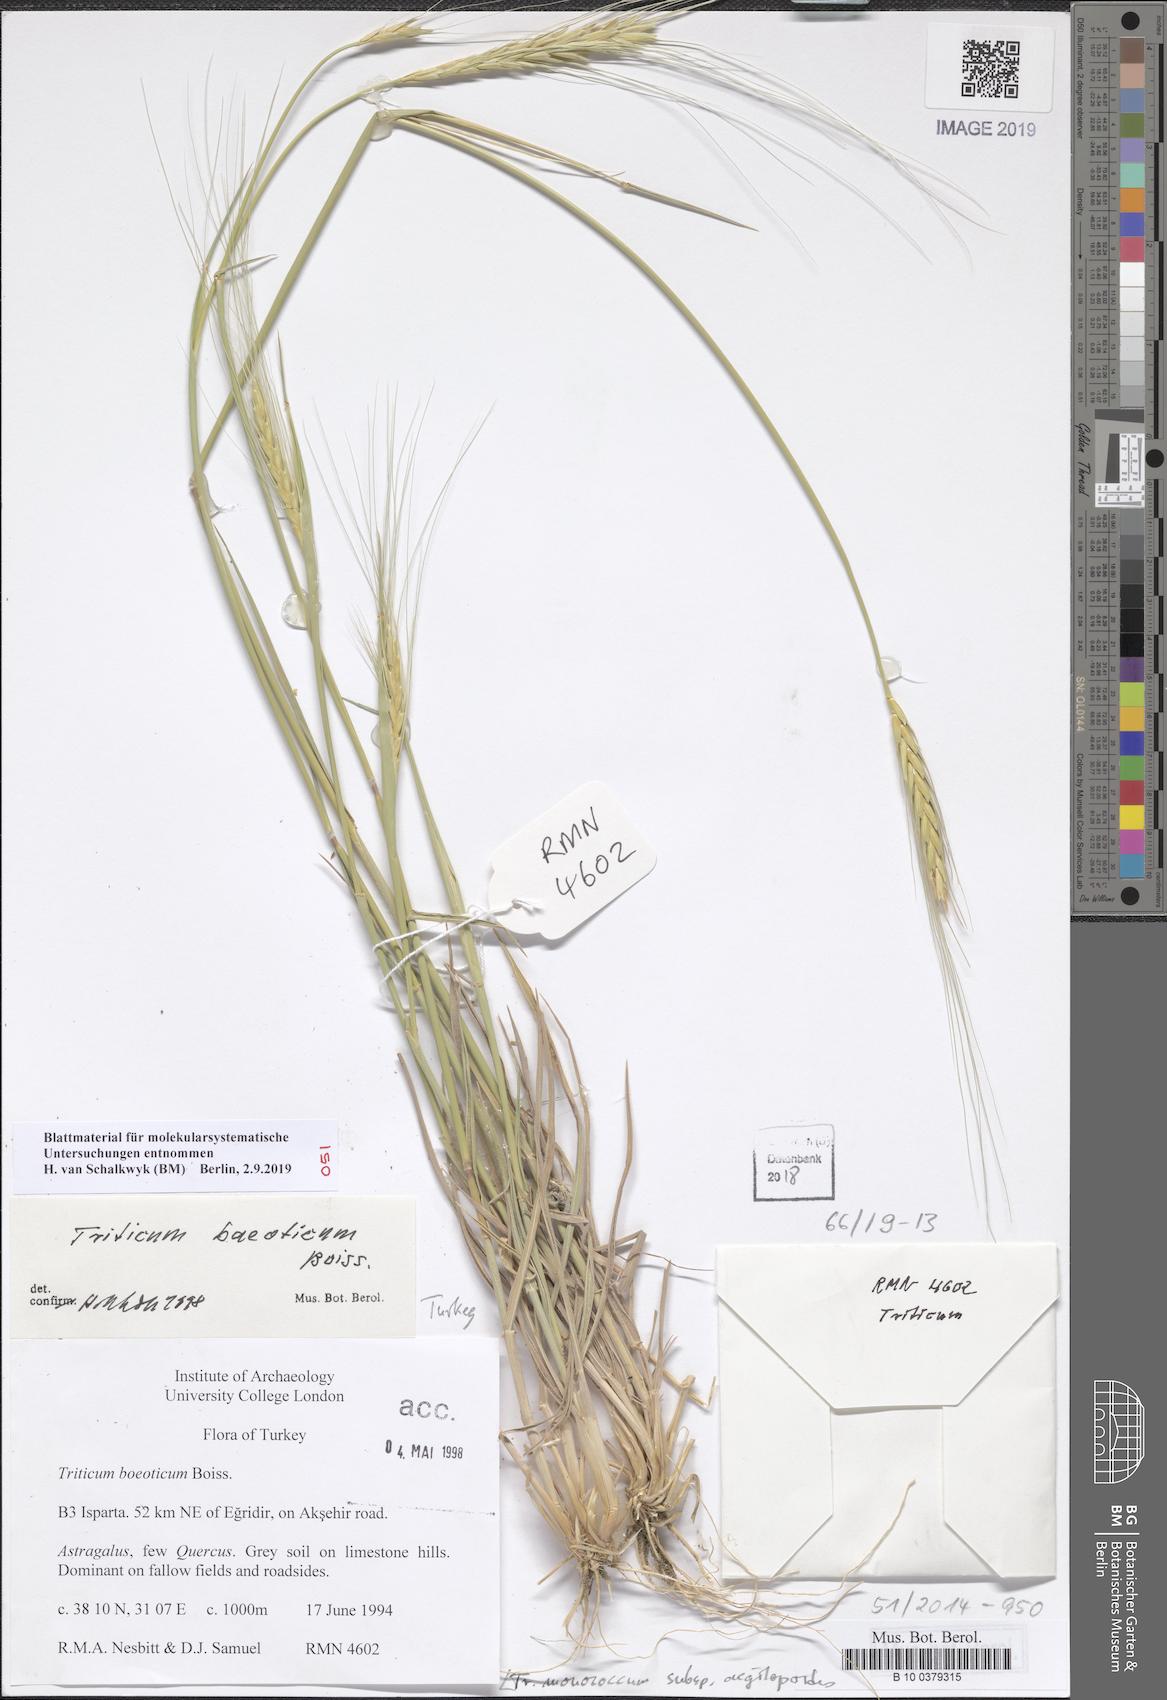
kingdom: Plantae
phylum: Tracheophyta
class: Liliopsida
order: Poales
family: Poaceae
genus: Triticum
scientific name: Triticum monococcum
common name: Einkorn
